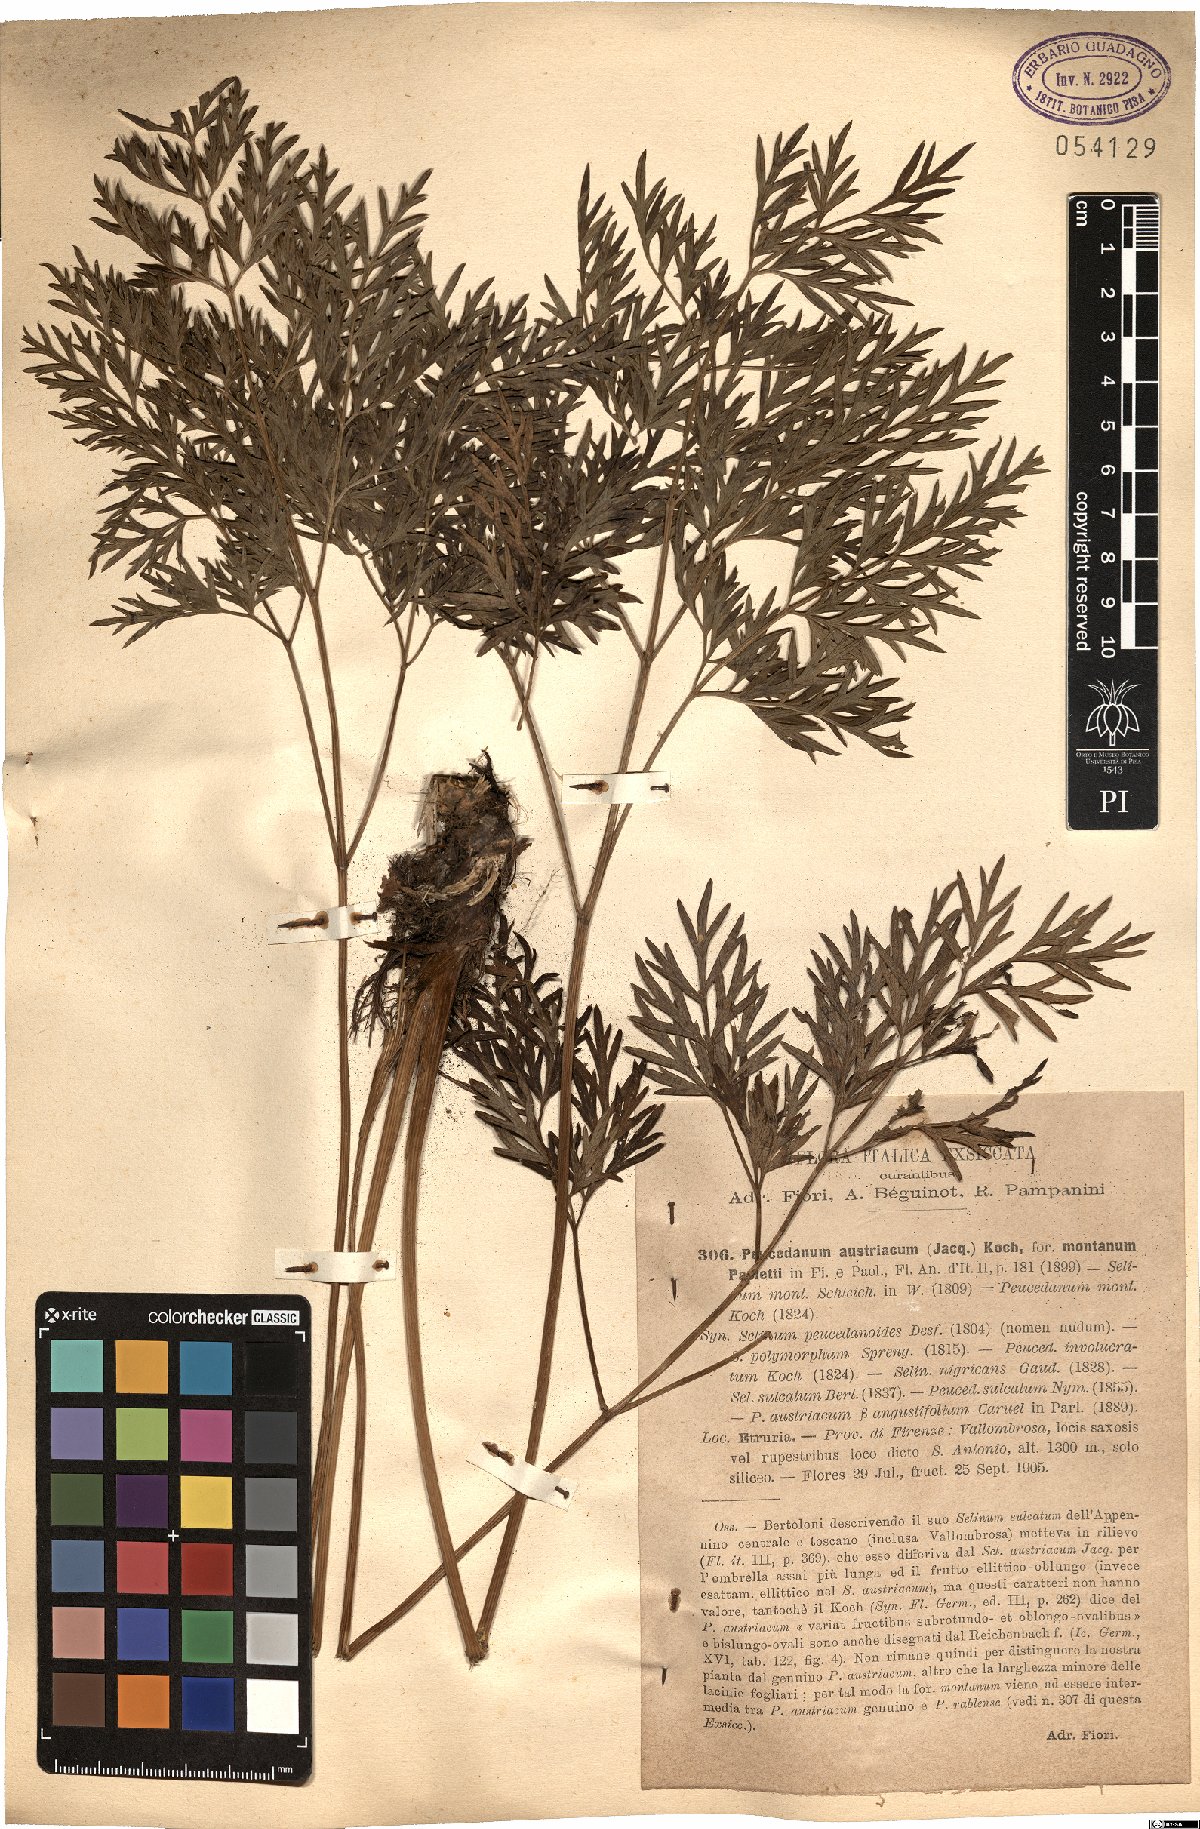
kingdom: Plantae
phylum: Tracheophyta
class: Magnoliopsida
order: Apiales
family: Apiaceae
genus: Peucedanum
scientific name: Peucedanum austriacum
